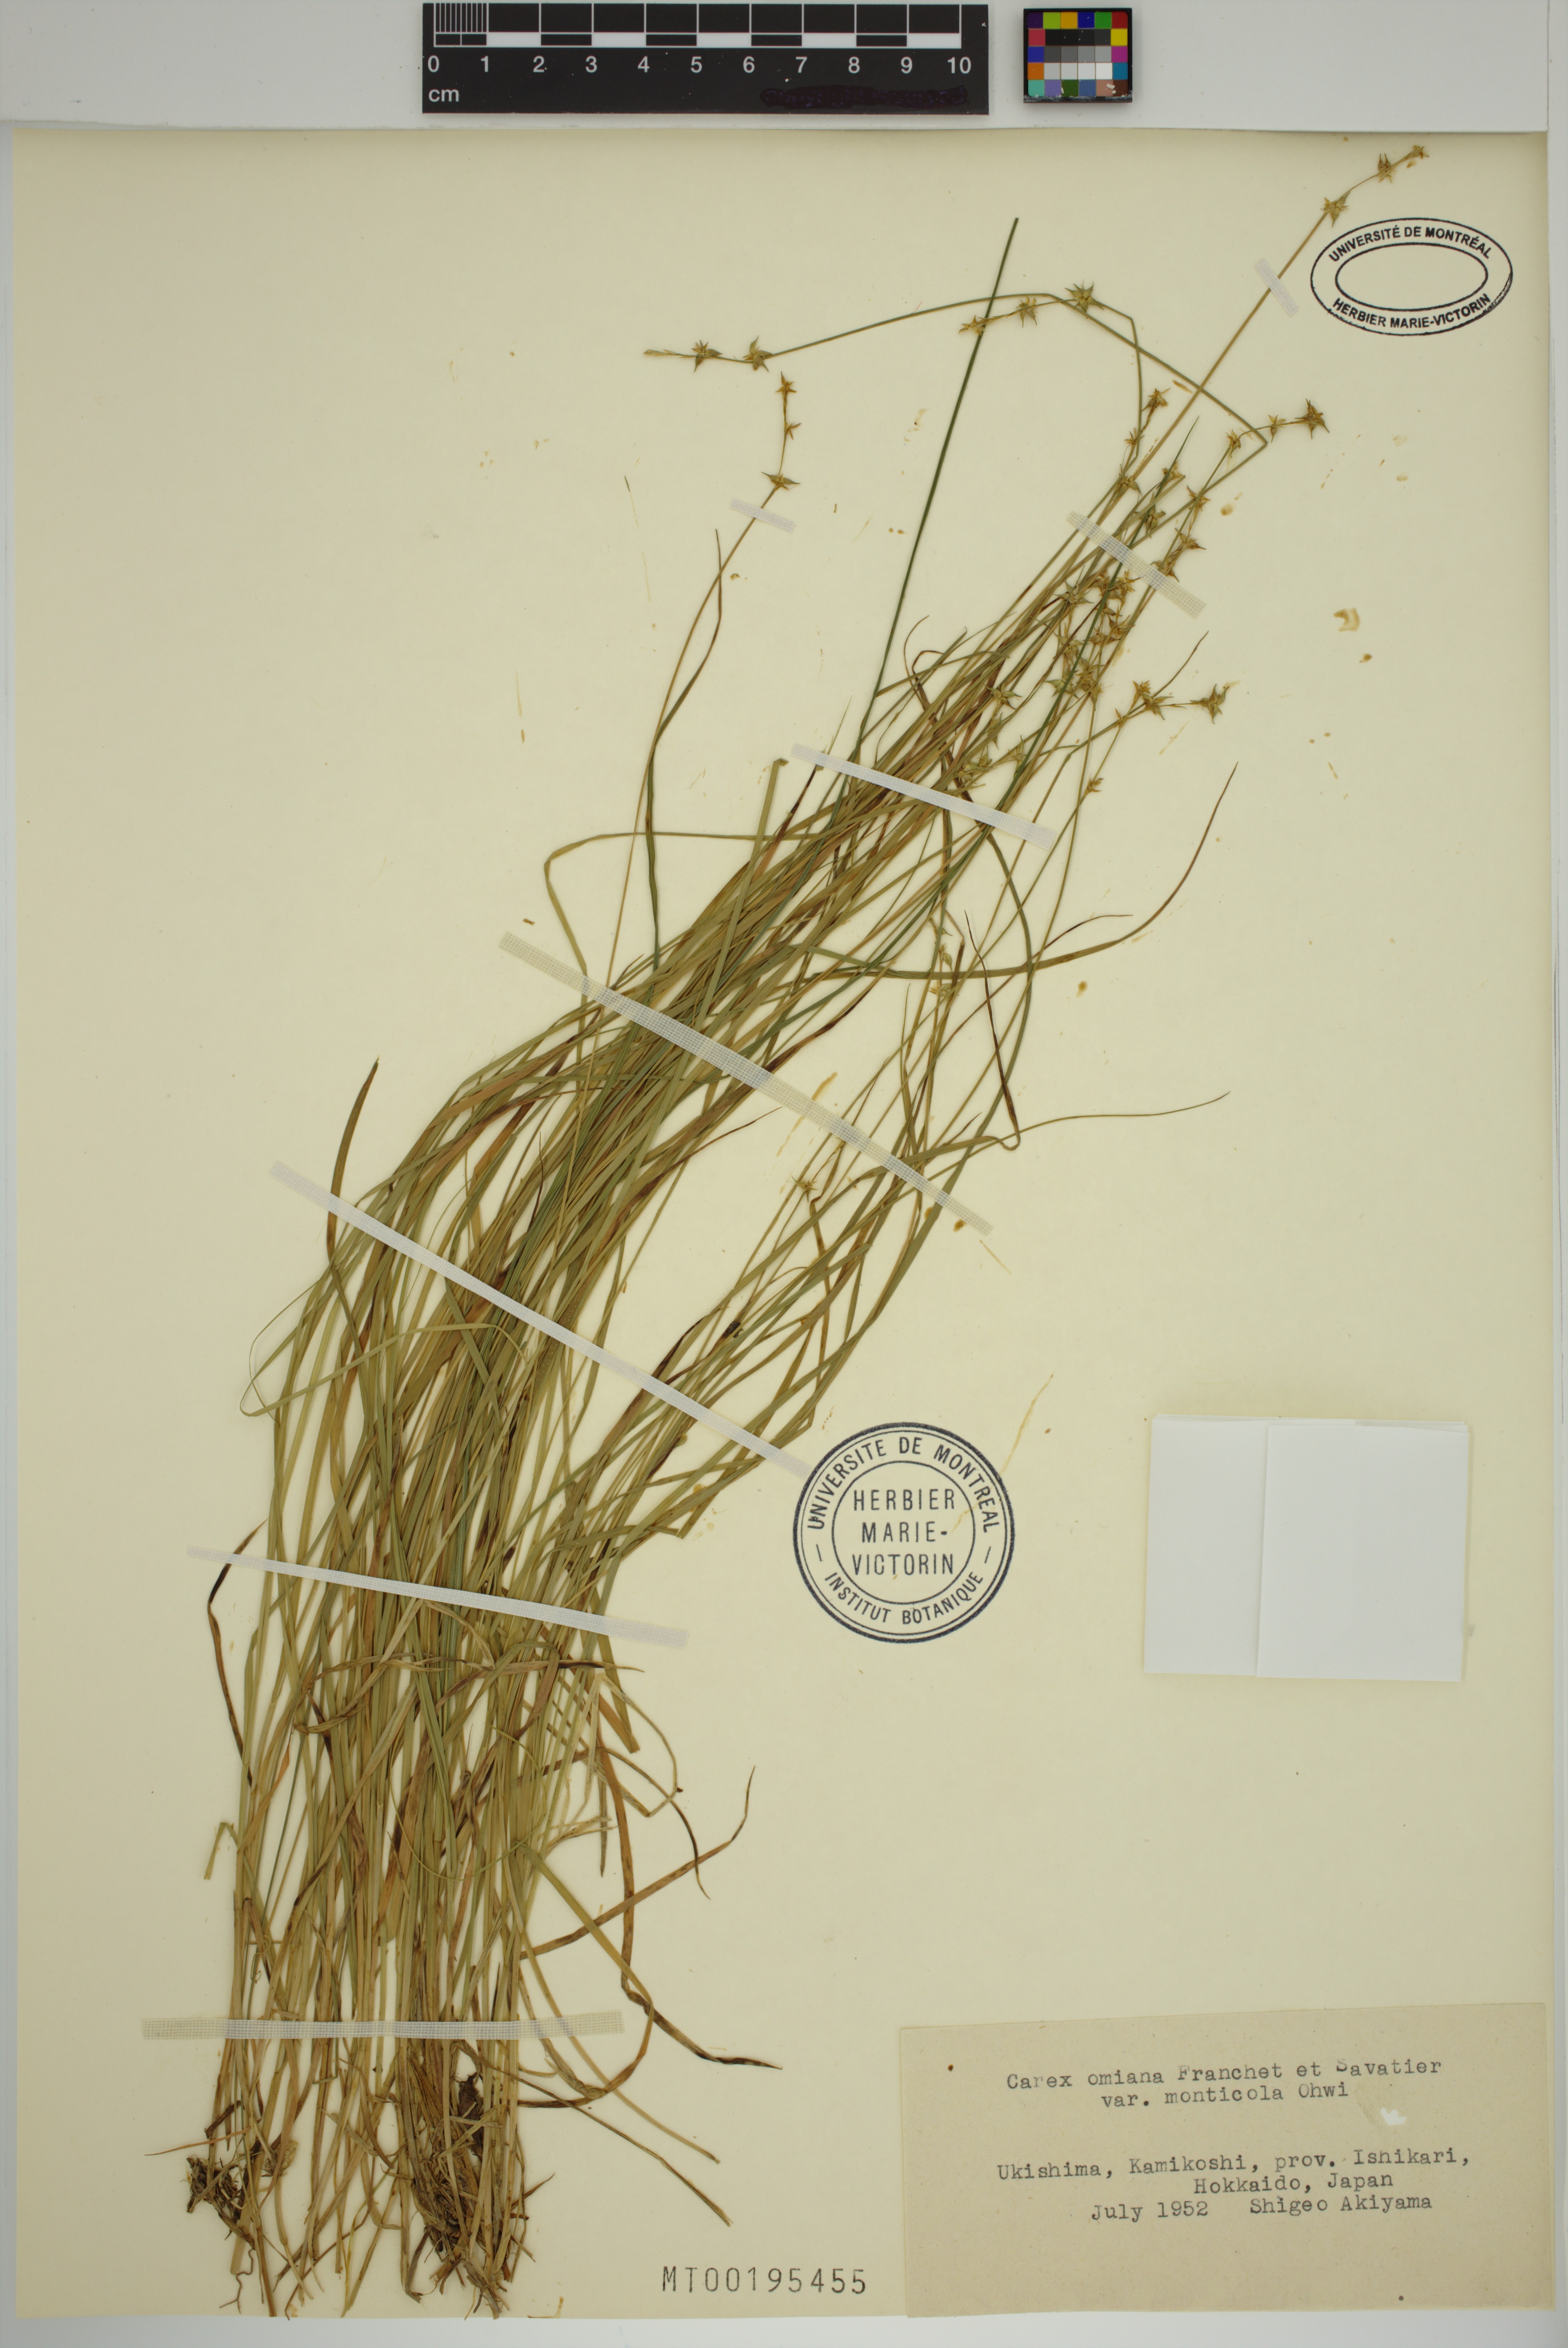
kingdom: Plantae
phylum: Tracheophyta
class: Liliopsida
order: Poales
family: Cyperaceae
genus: Carex
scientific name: Carex omiana
